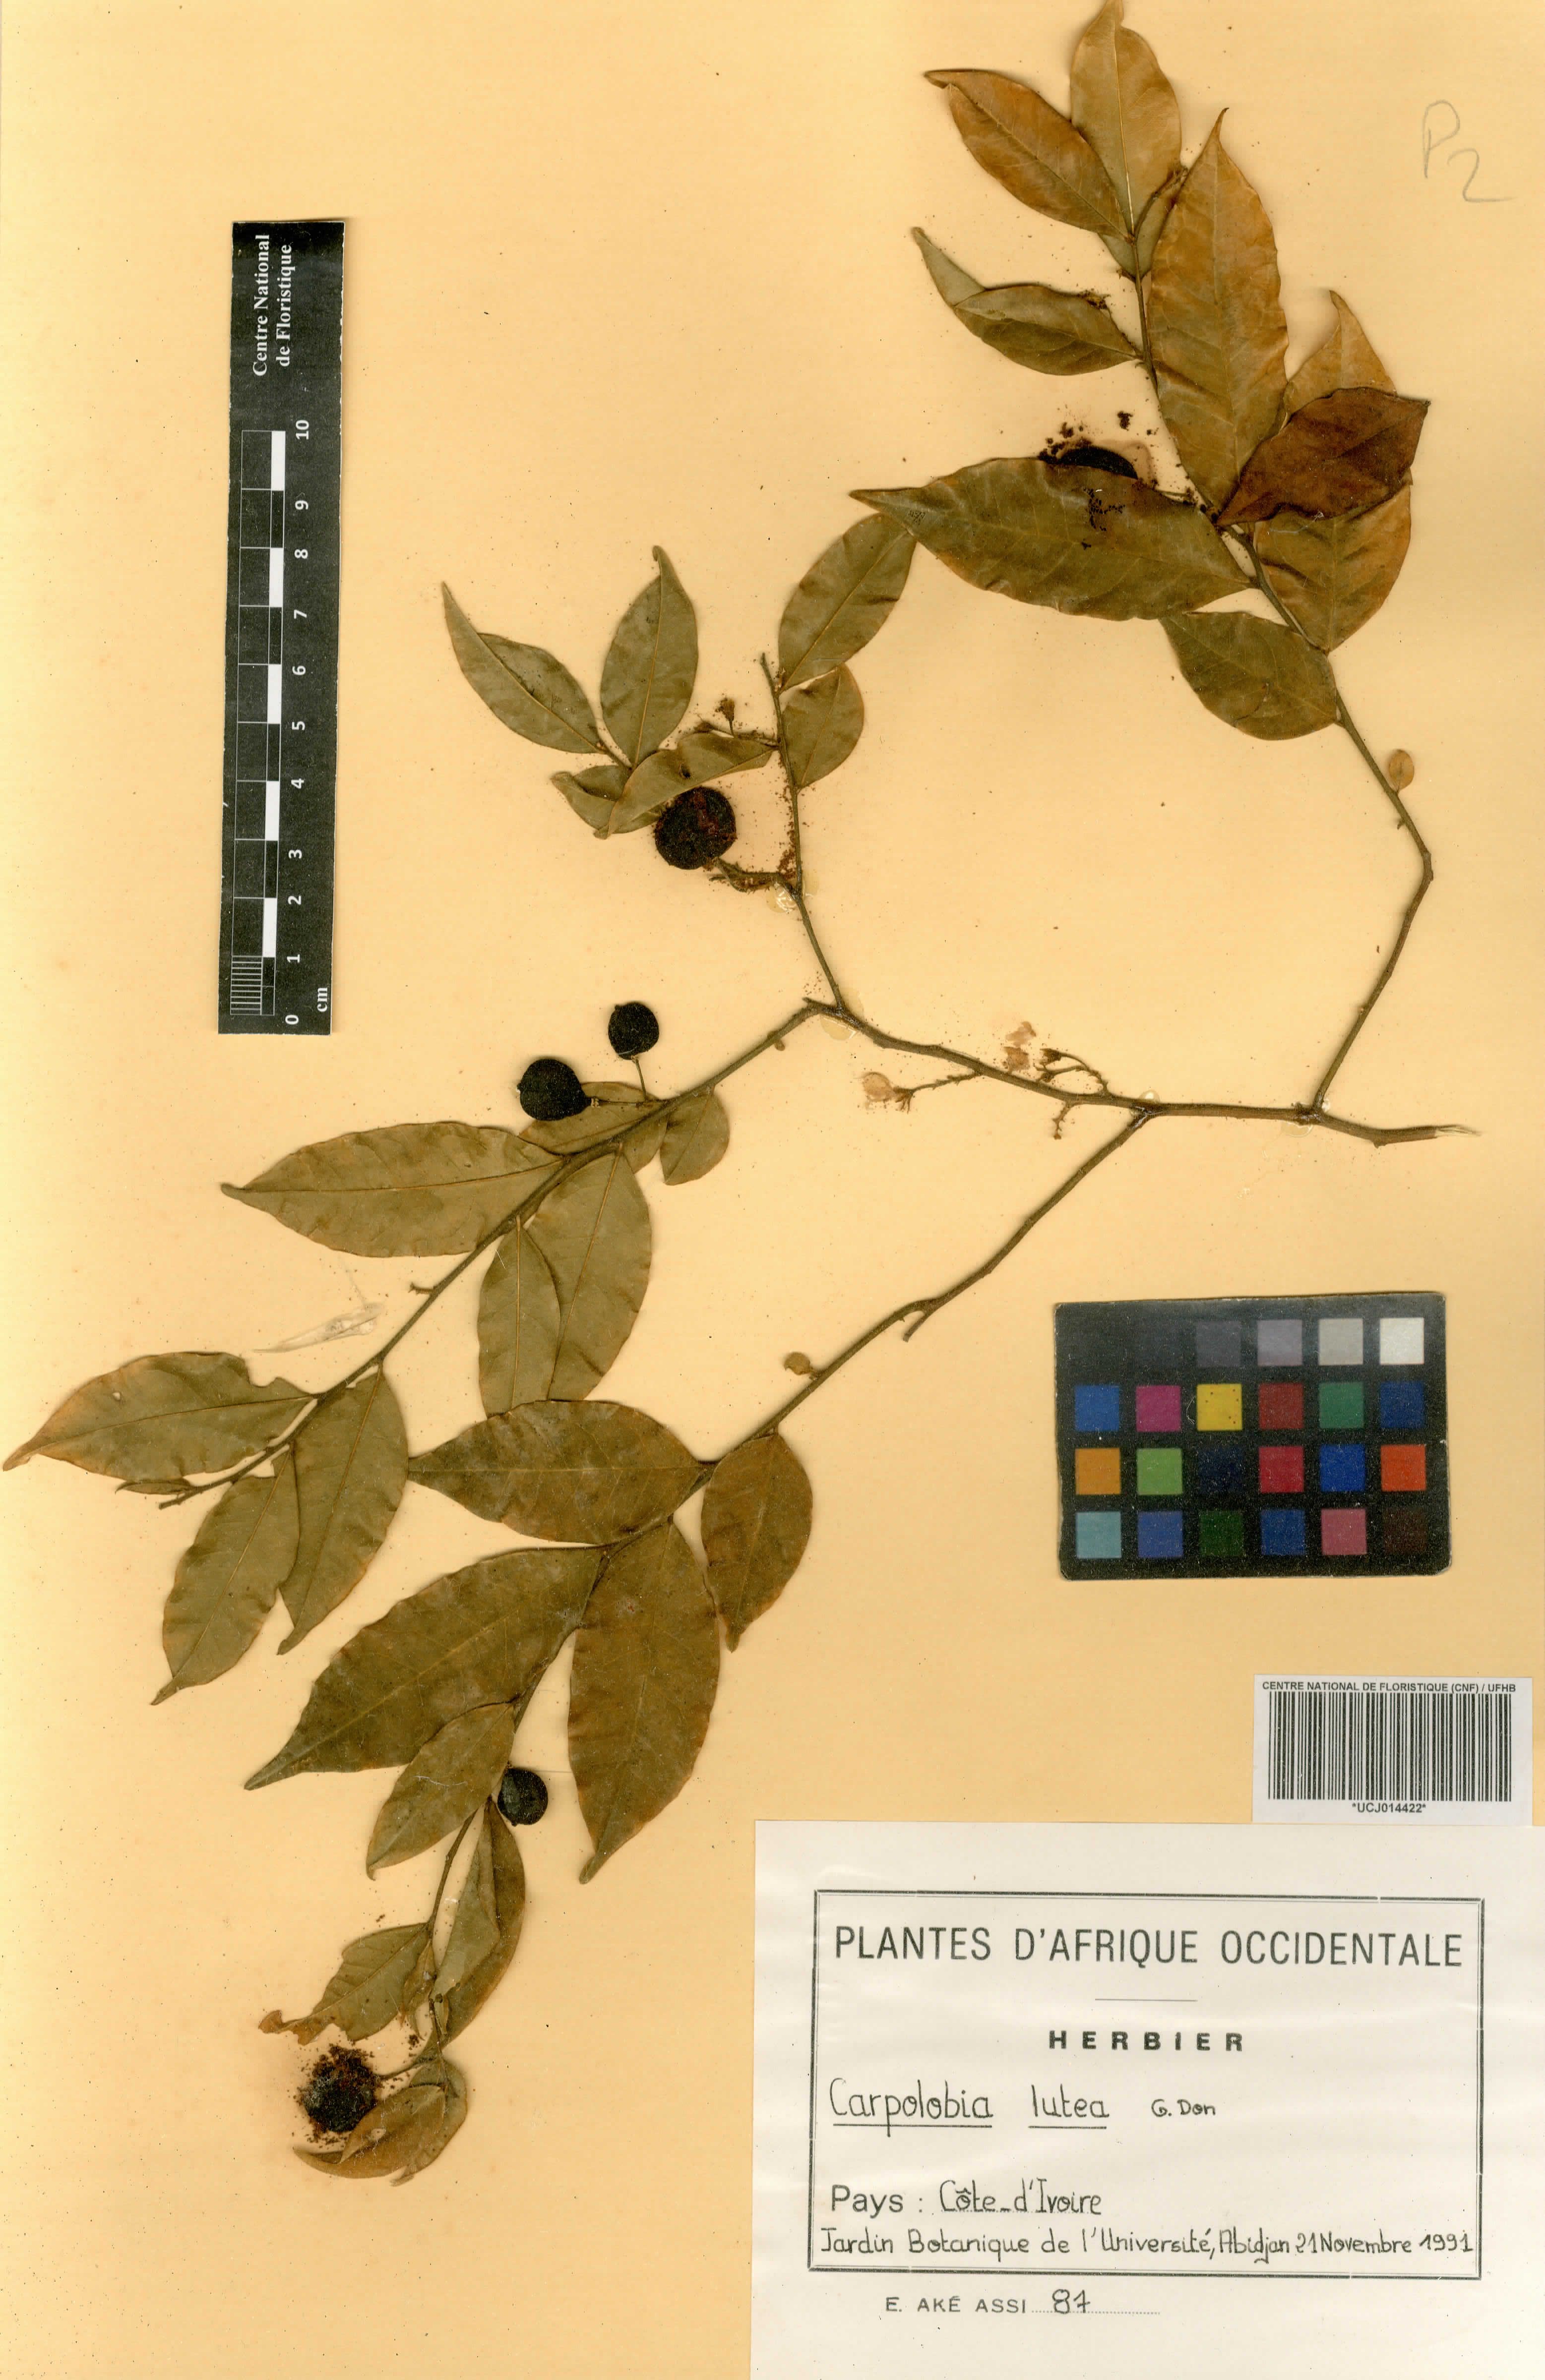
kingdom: Plantae
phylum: Tracheophyta
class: Magnoliopsida
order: Fabales
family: Polygalaceae
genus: Carpolobia
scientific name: Carpolobia lutea
